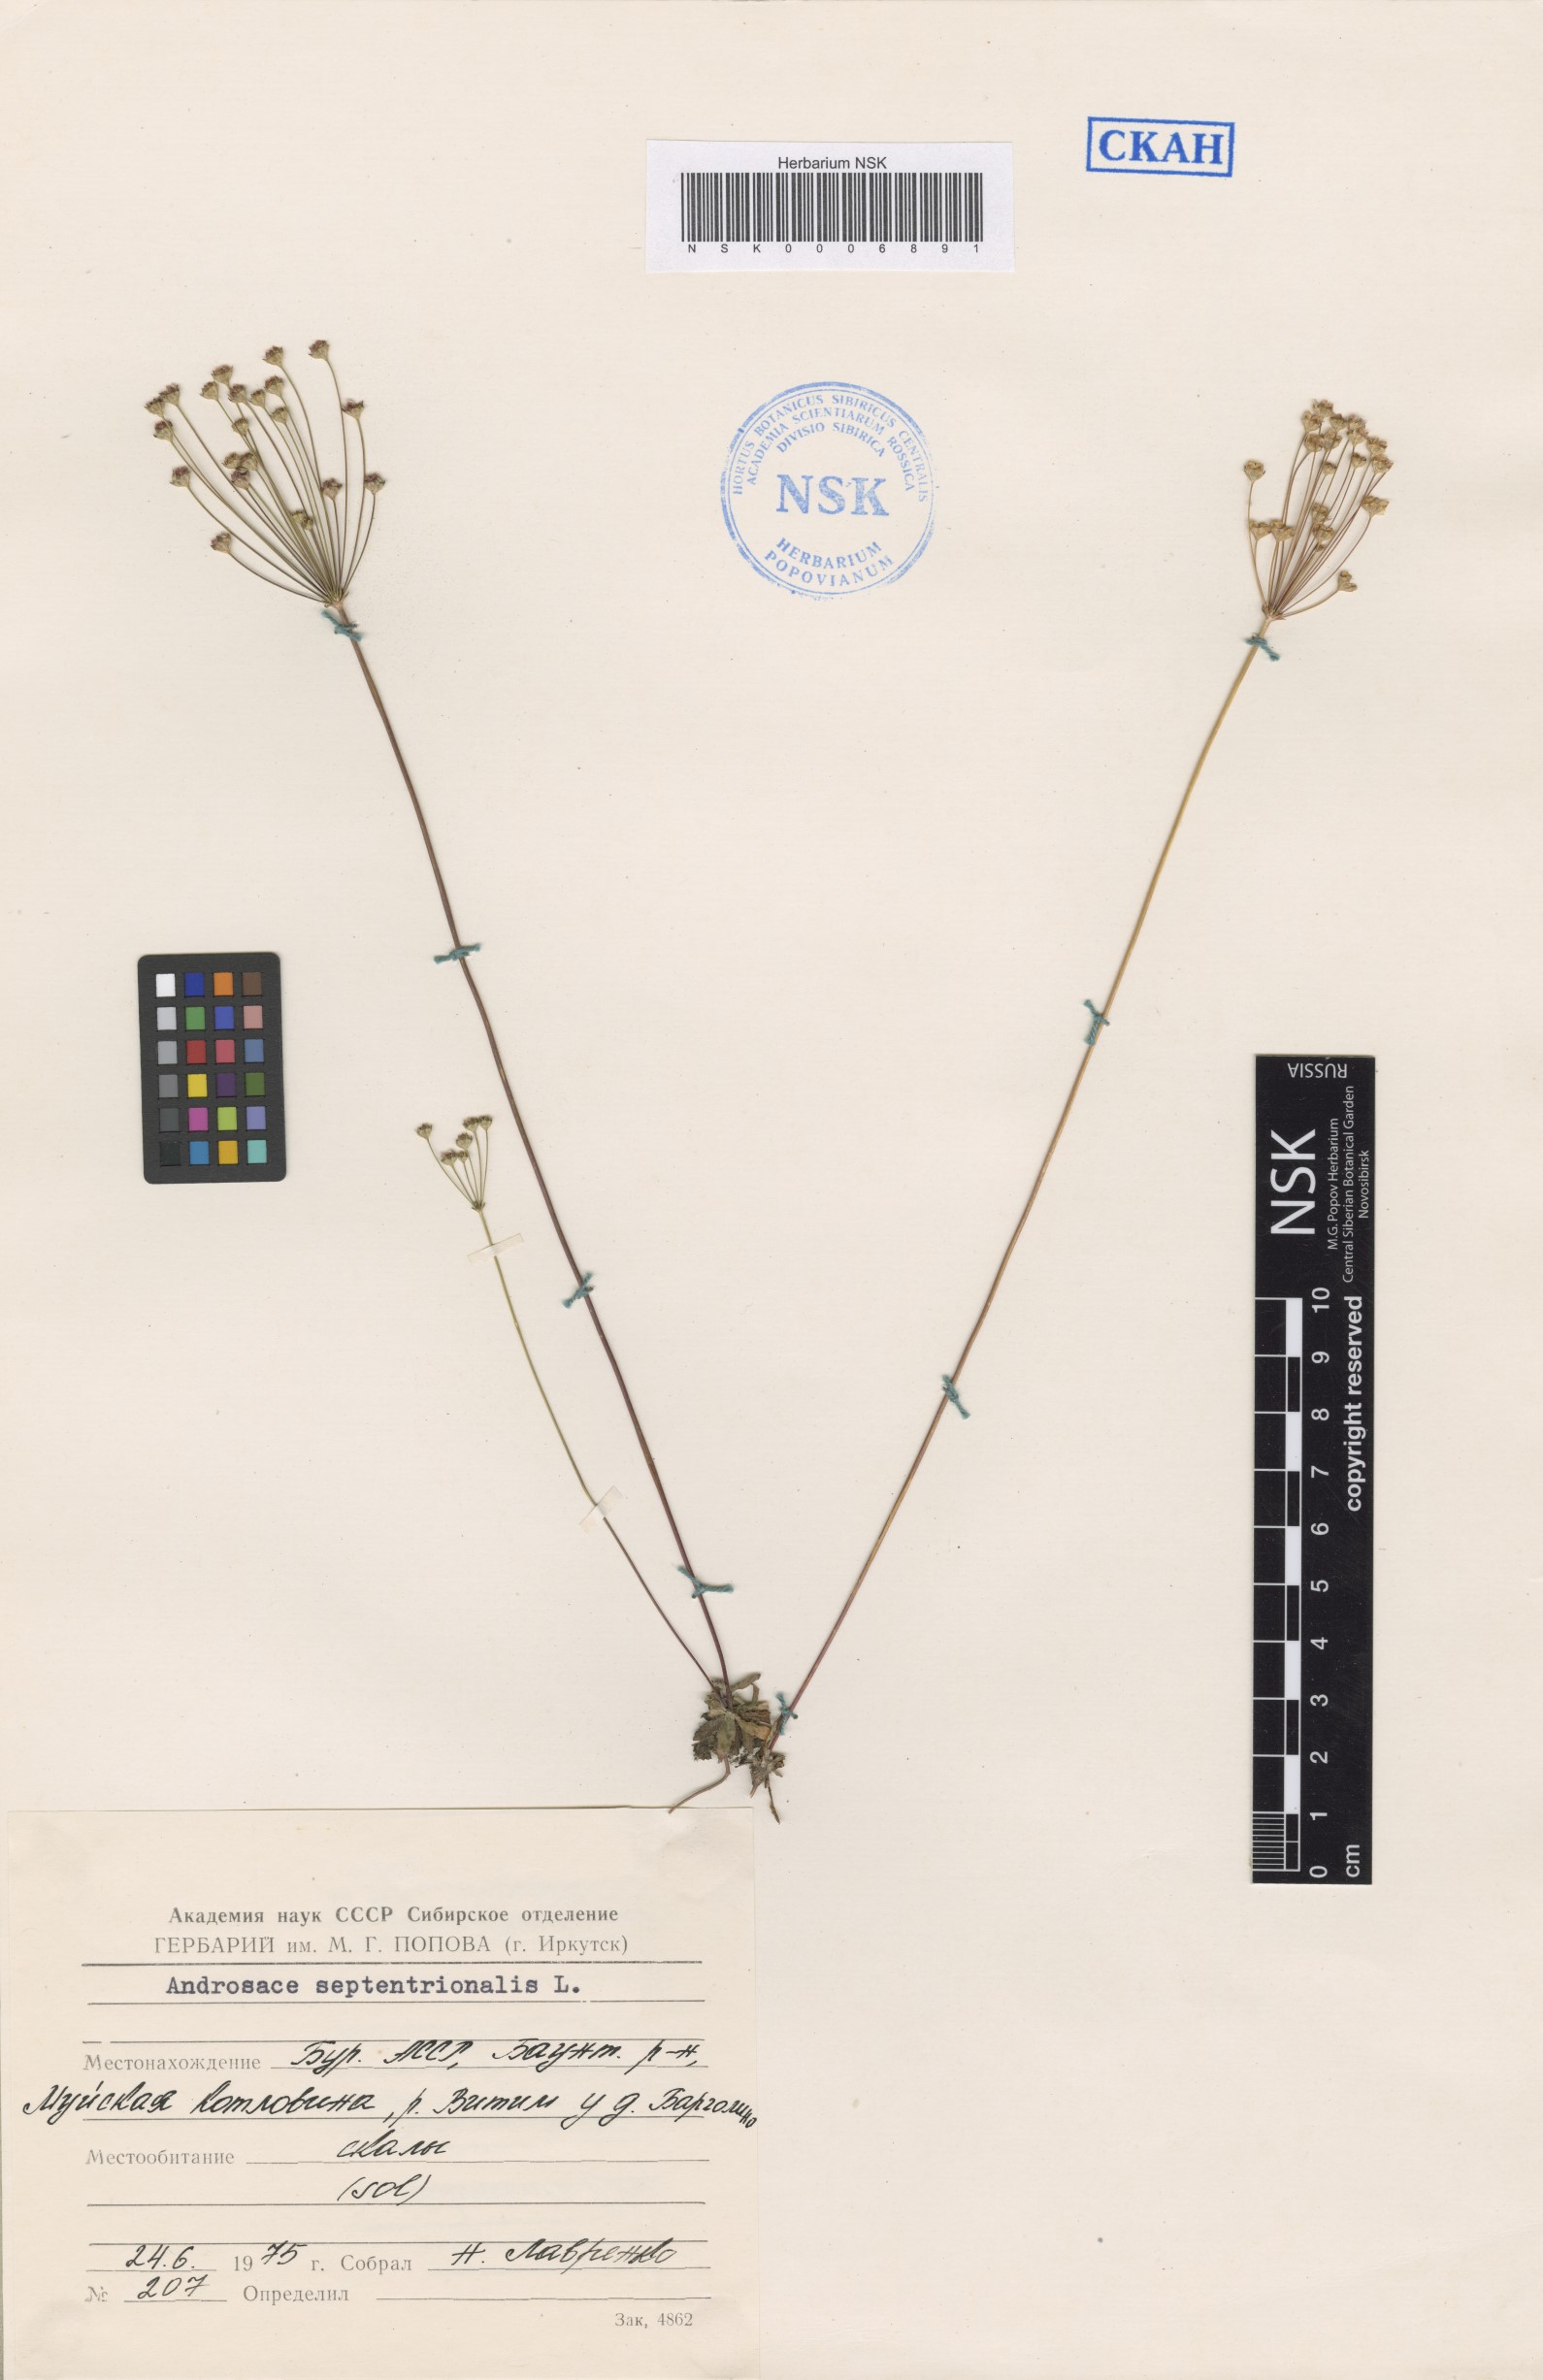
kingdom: Plantae
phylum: Tracheophyta
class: Magnoliopsida
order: Ericales
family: Primulaceae
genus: Androsace
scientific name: Androsace septentrionalis
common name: Hairy northern fairy-candelabra
